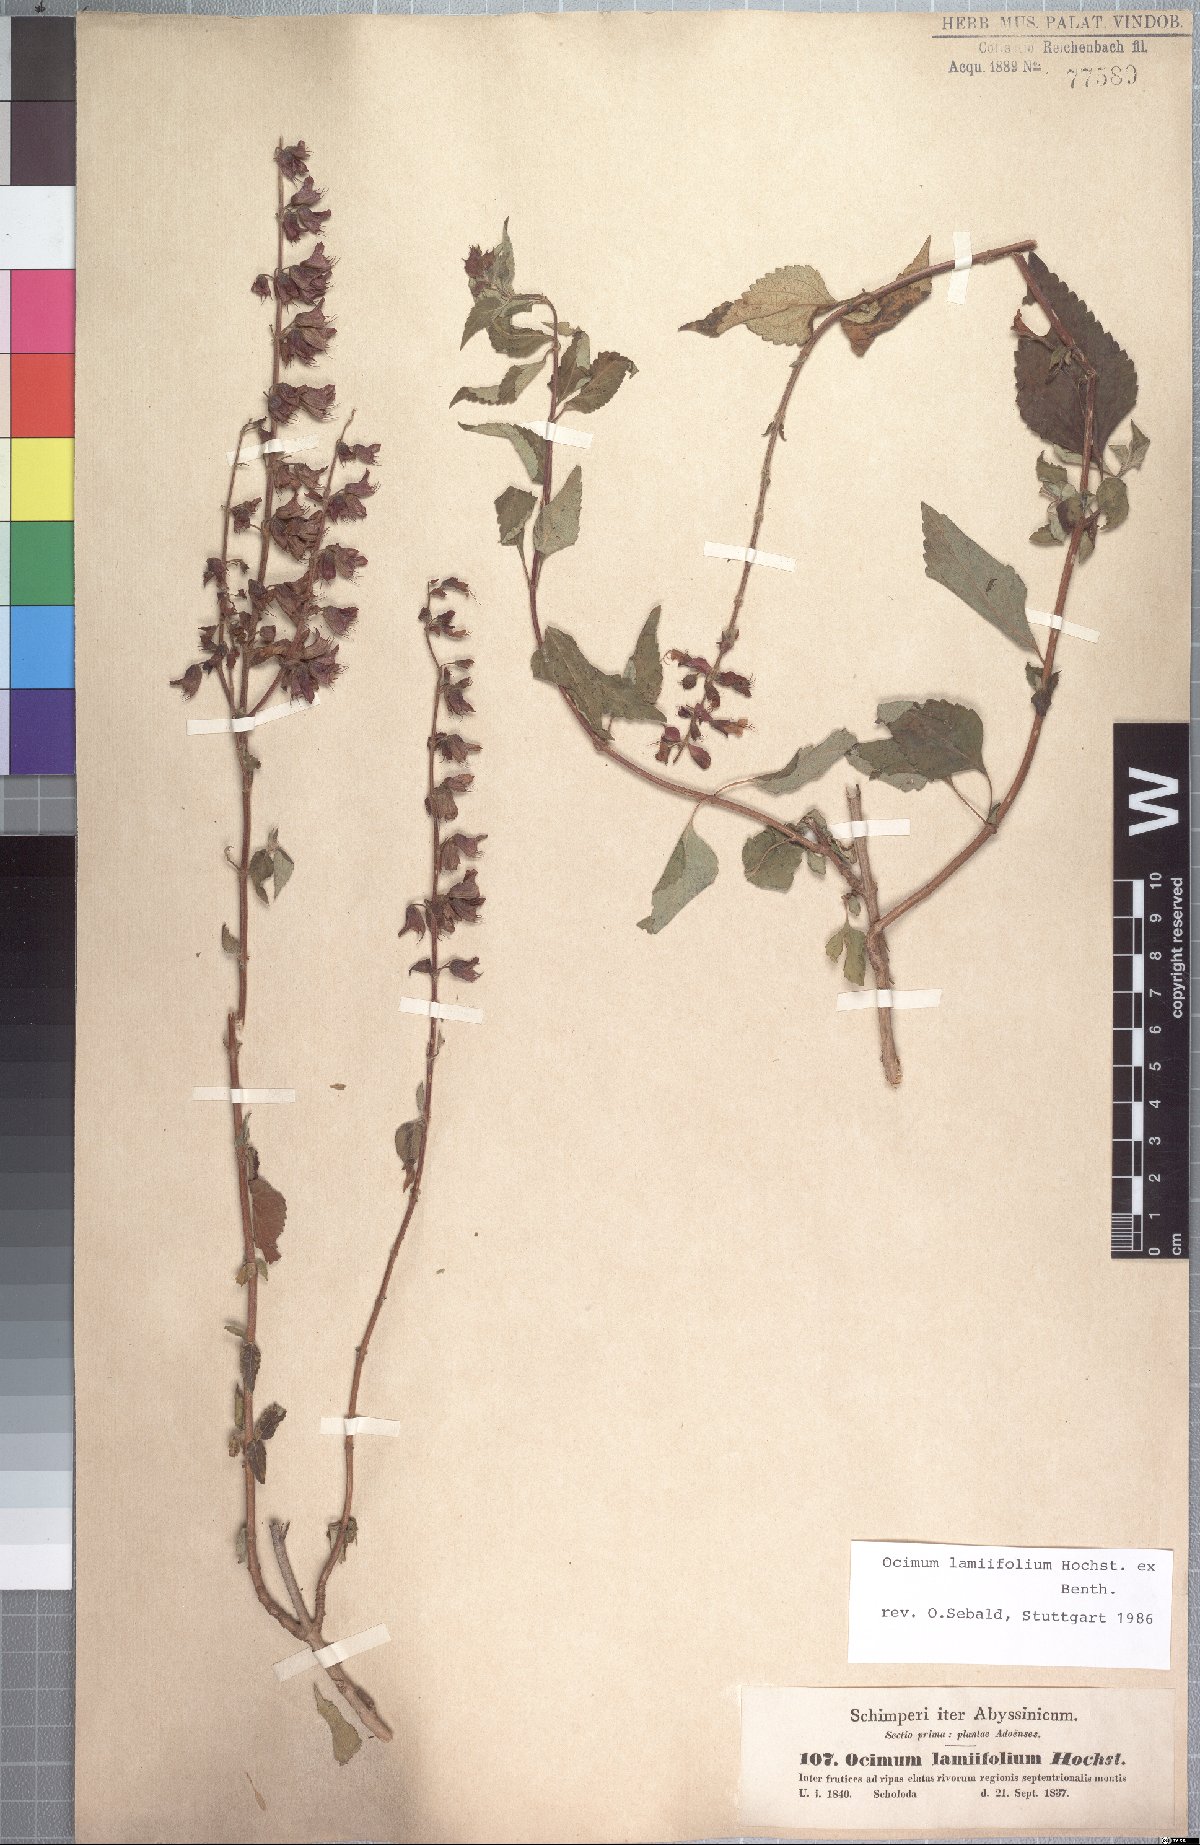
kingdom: Plantae
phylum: Tracheophyta
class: Magnoliopsida
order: Lamiales
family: Lamiaceae
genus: Ocimum
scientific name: Ocimum lamiifolium
